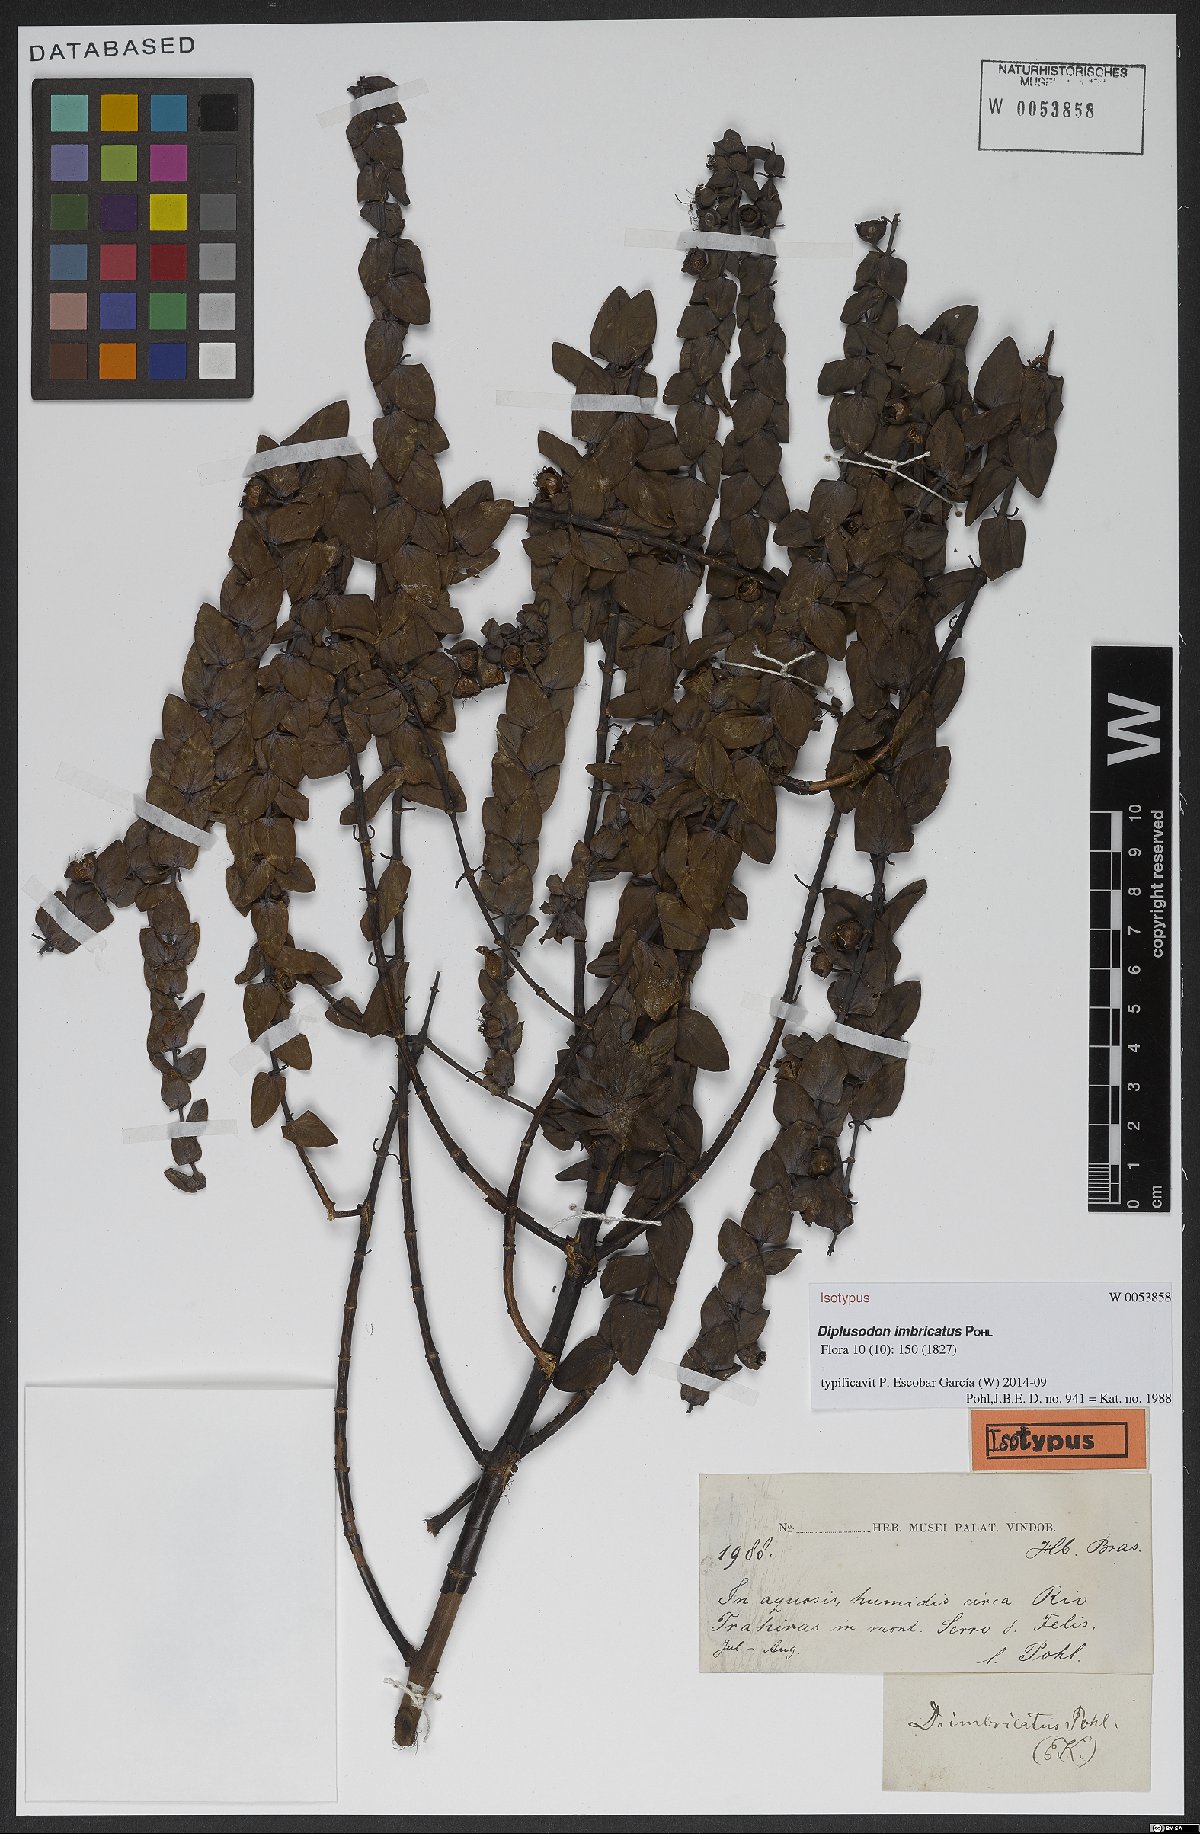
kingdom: Plantae
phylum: Tracheophyta
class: Magnoliopsida
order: Myrtales
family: Lythraceae
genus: Diplusodon
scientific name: Diplusodon imbricatus
